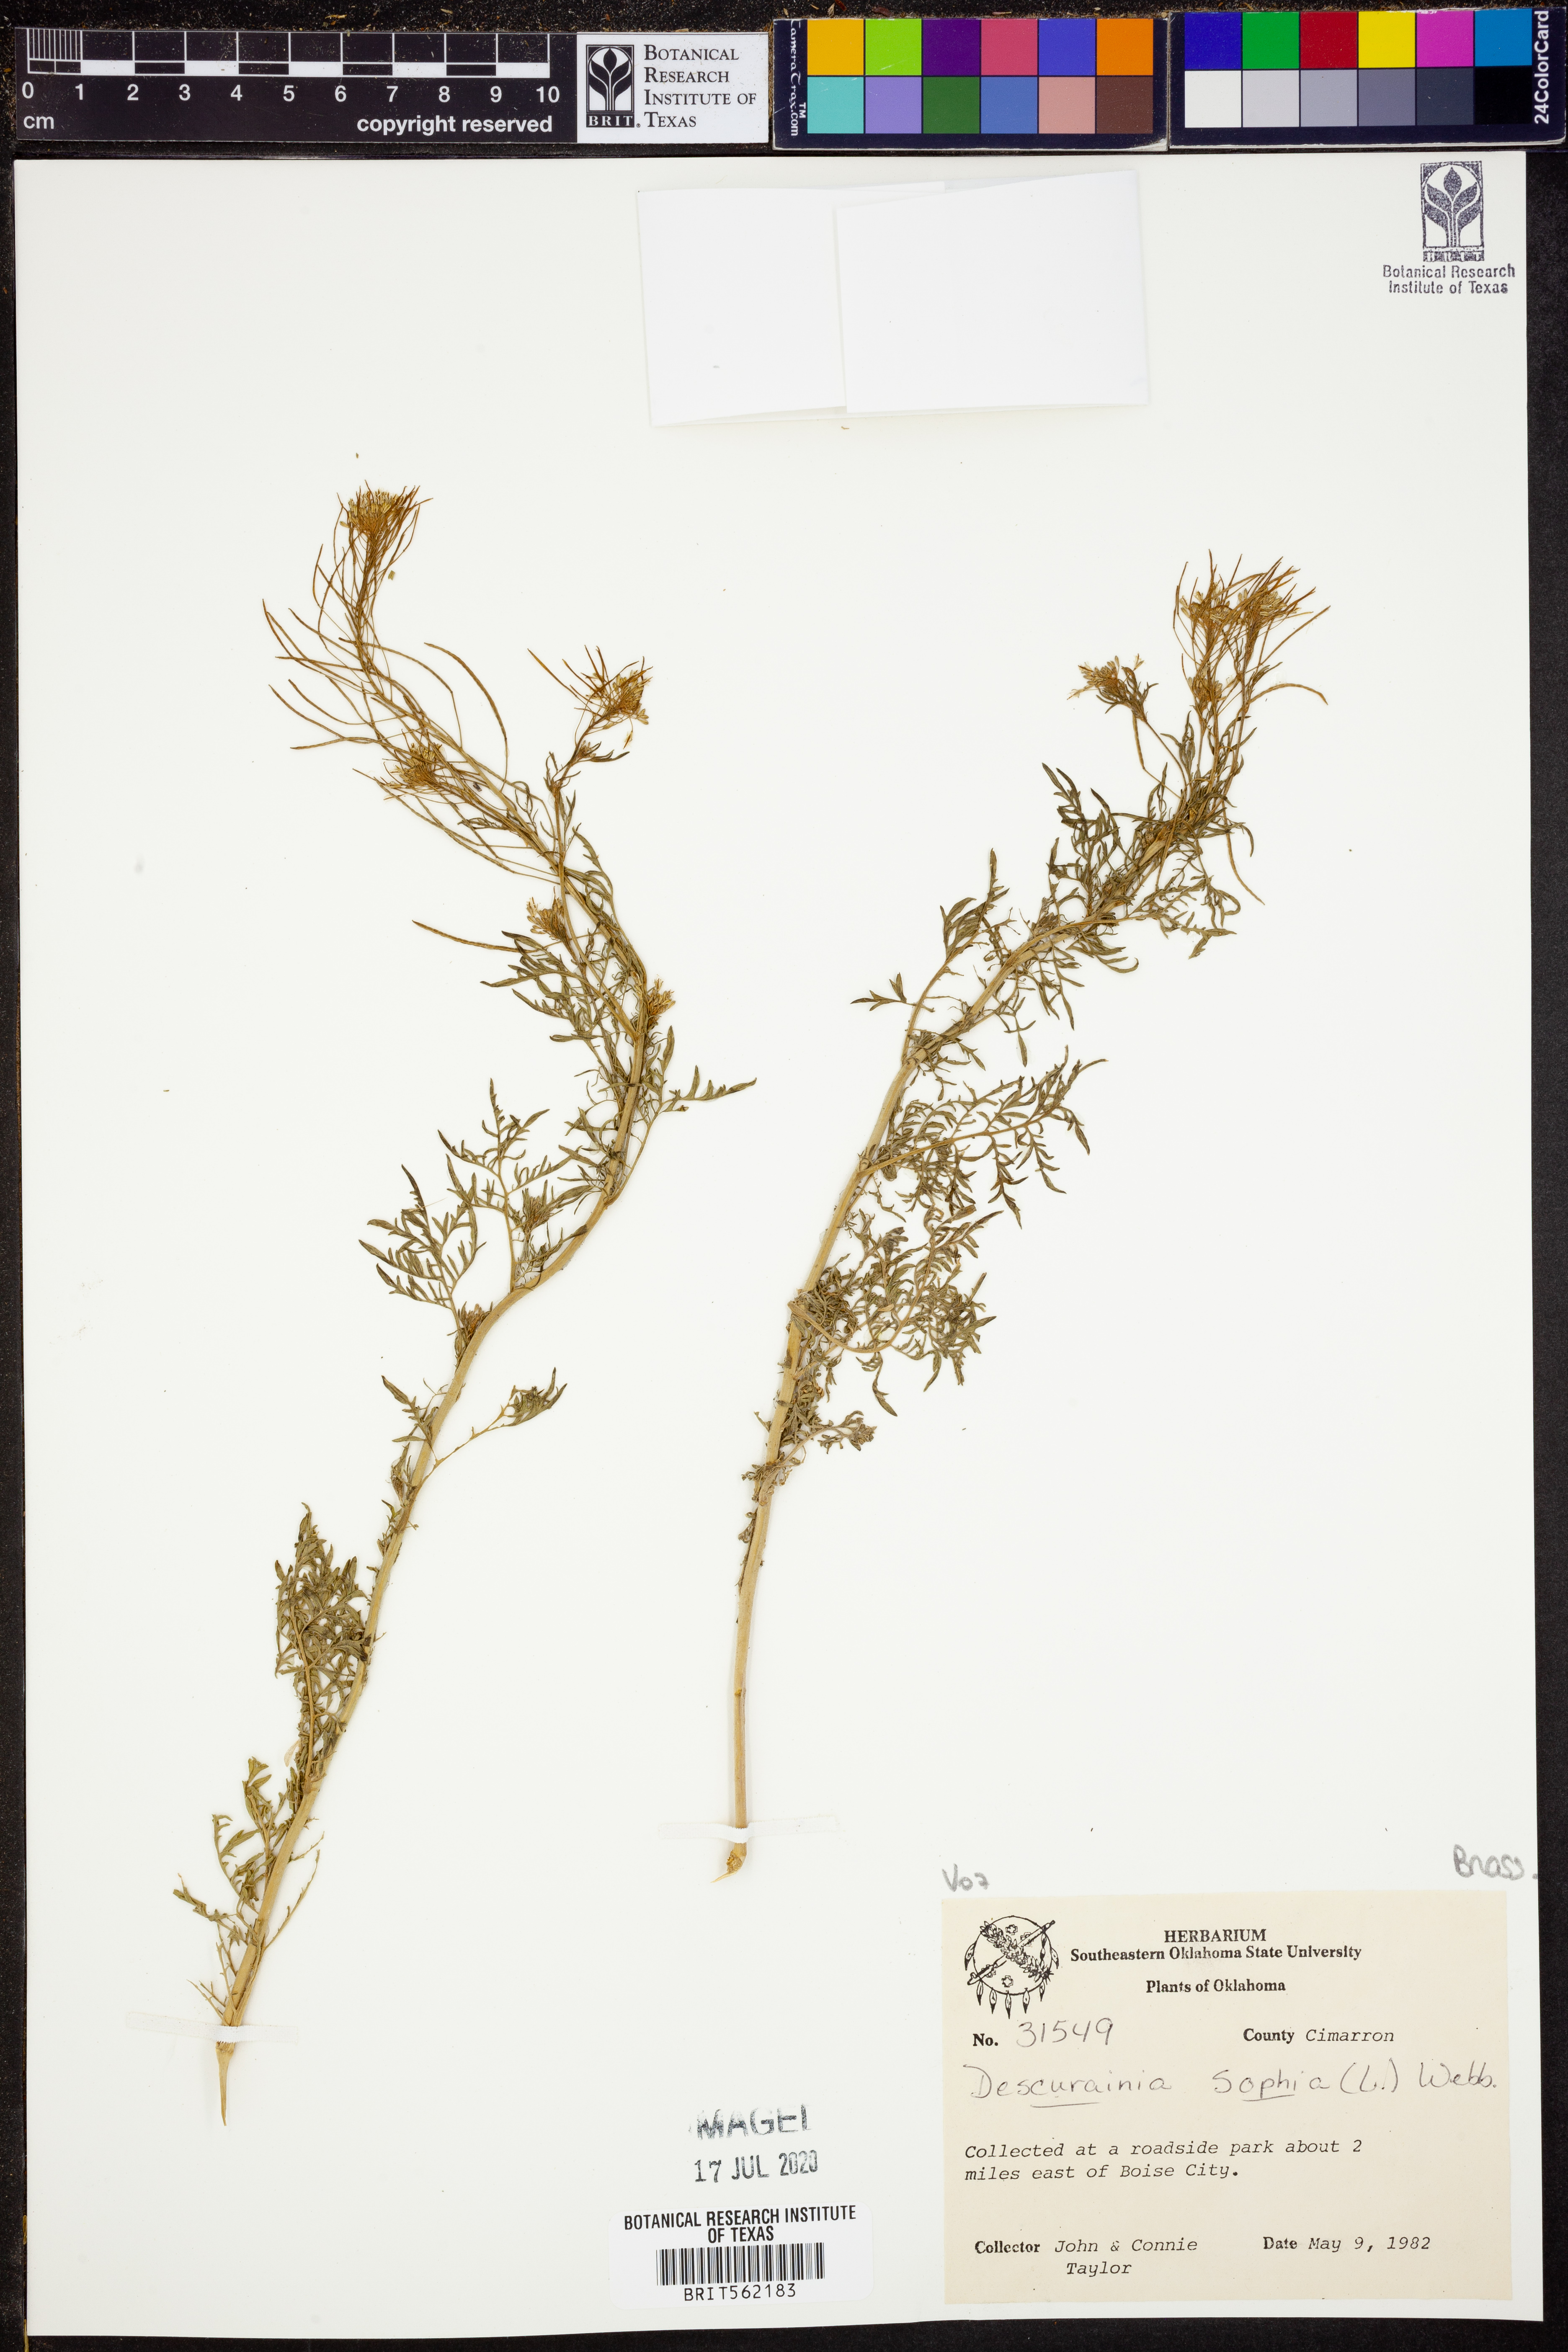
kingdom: Plantae
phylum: Tracheophyta
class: Magnoliopsida
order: Brassicales
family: Brassicaceae
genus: Descurainia
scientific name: Descurainia sophia
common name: Flixweed
